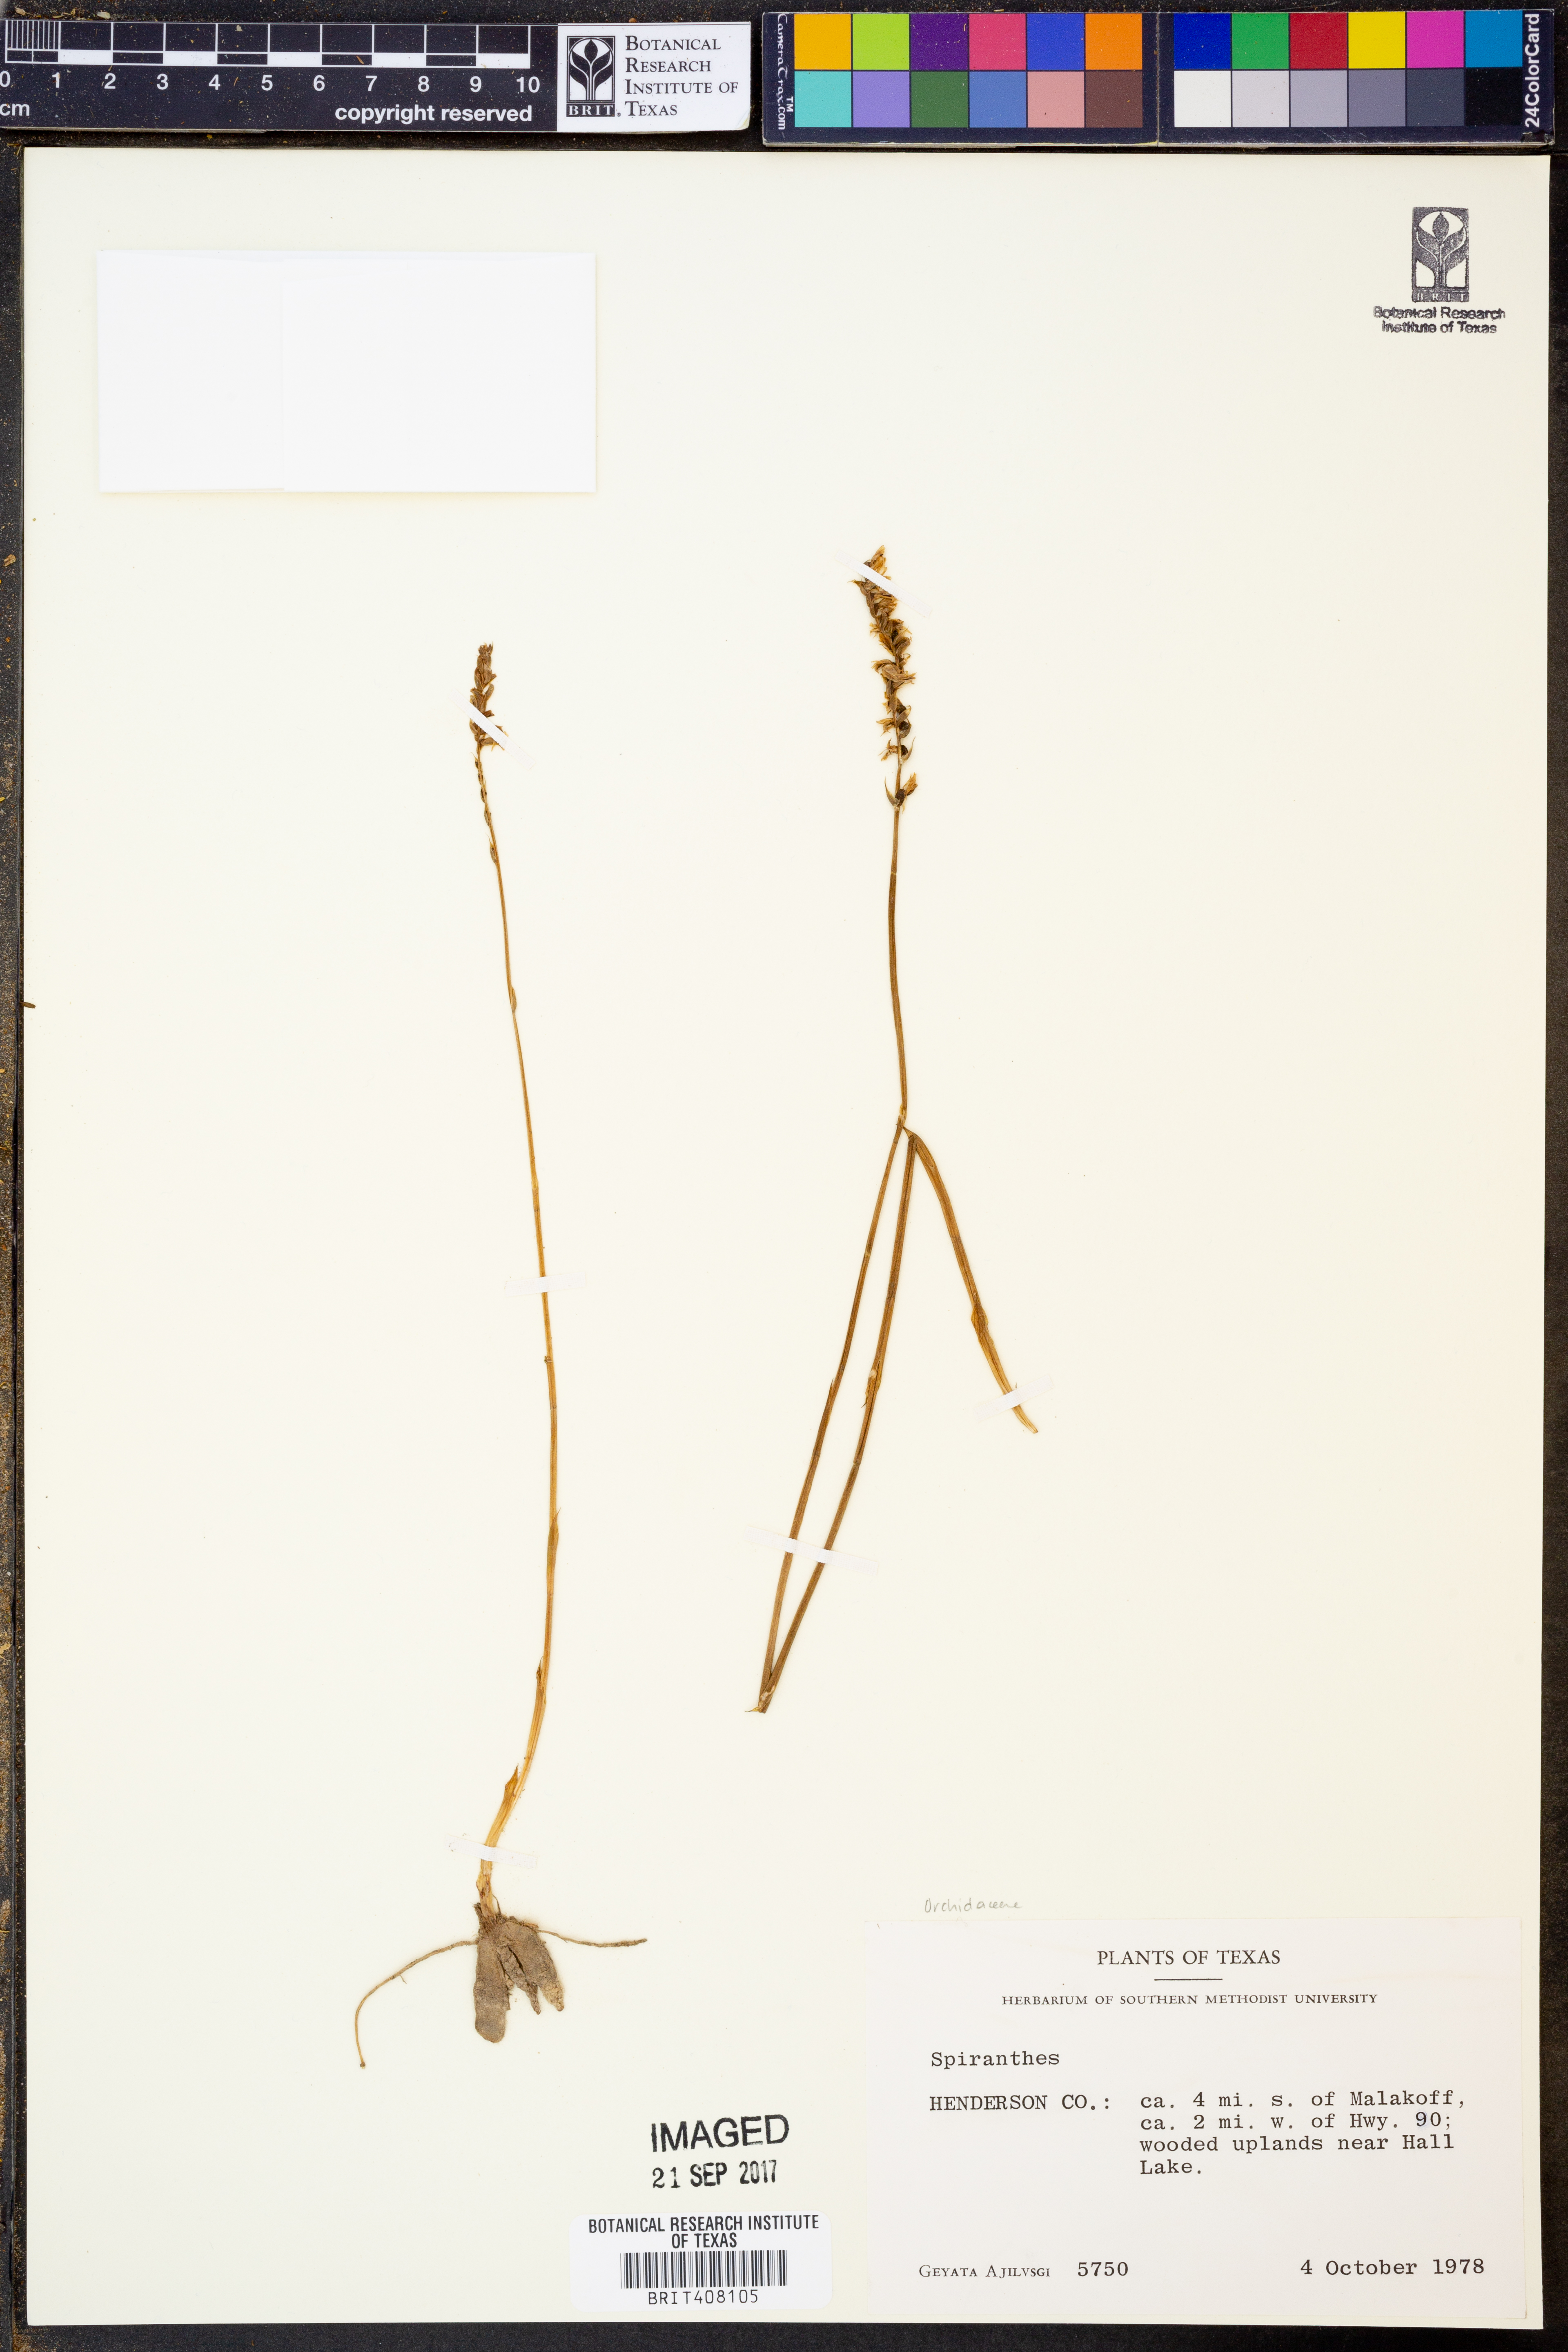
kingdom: Plantae
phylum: Tracheophyta
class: Liliopsida
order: Asparagales
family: Orchidaceae
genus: Spiranthes
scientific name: Spiranthes
